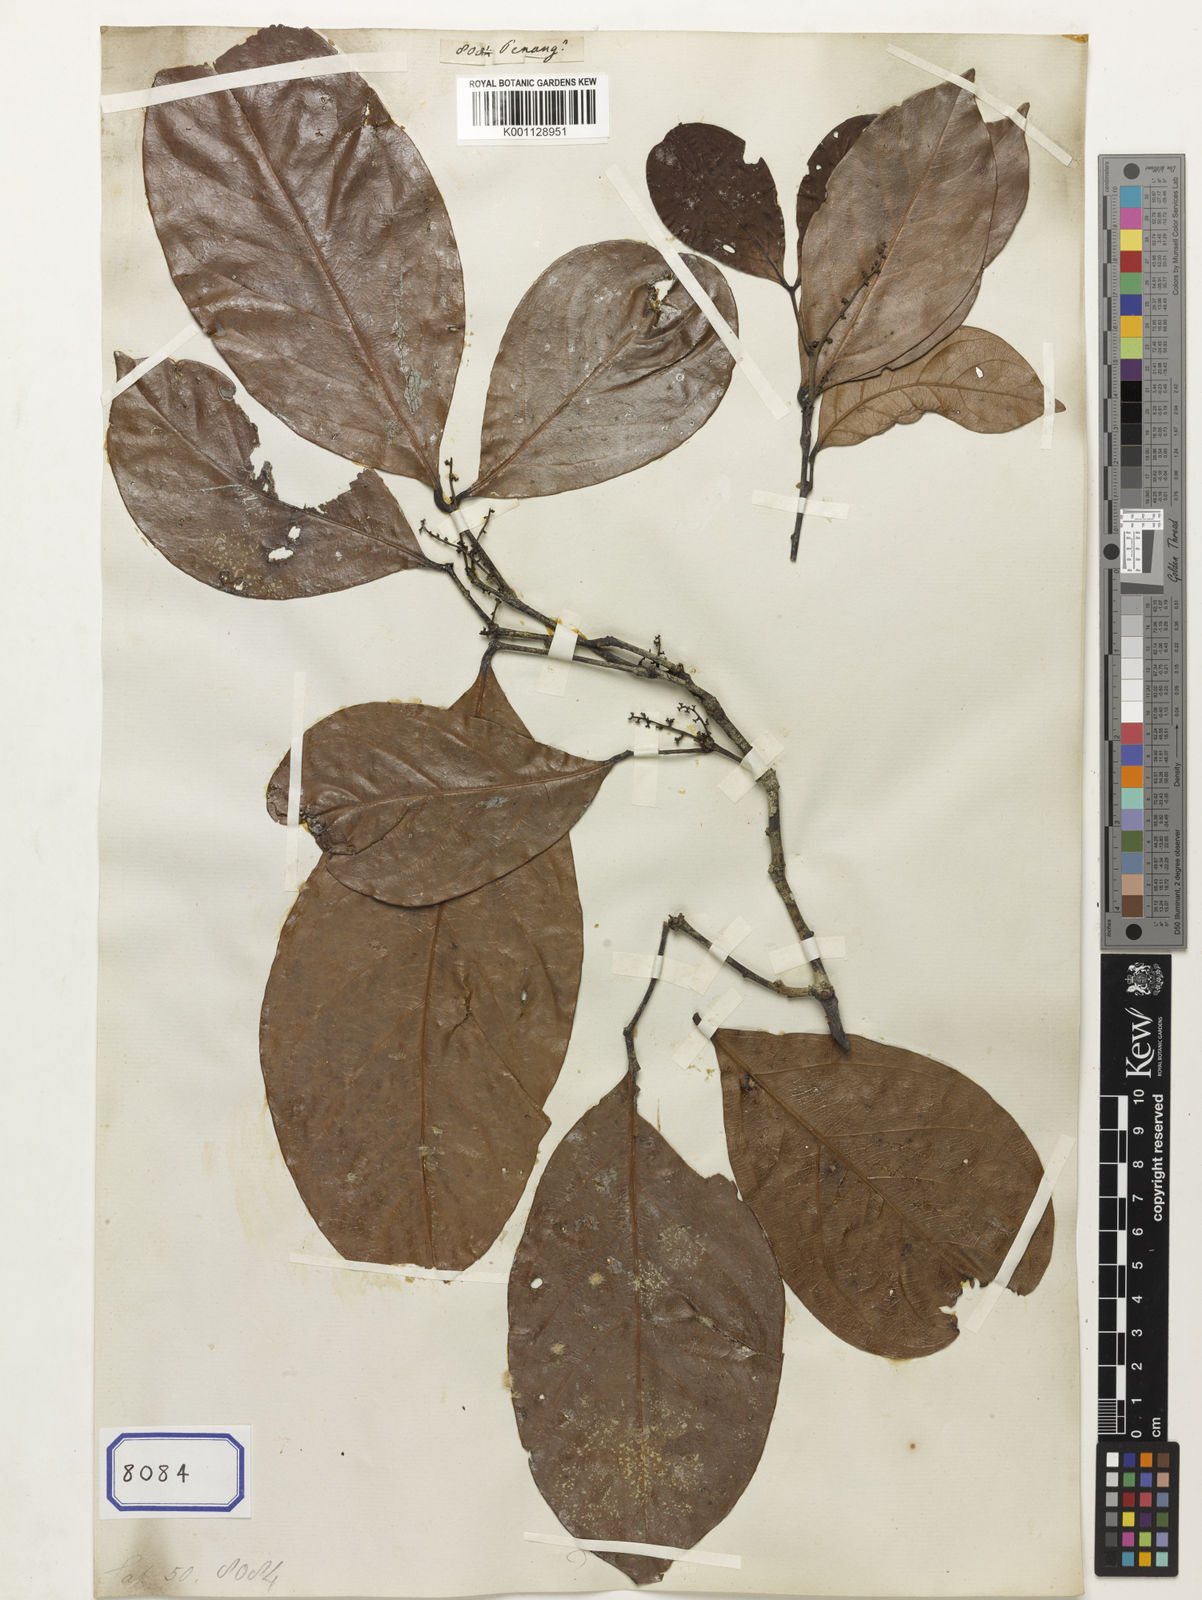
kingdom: Plantae
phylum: Tracheophyta
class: Magnoliopsida
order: Sapindales
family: Sapindaceae
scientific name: Sapindaceae
